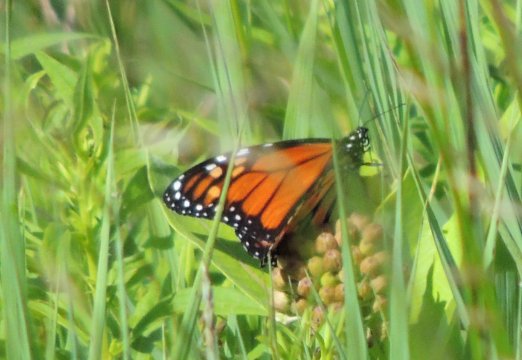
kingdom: Animalia
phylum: Arthropoda
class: Insecta
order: Lepidoptera
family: Nymphalidae
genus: Danaus
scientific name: Danaus plexippus
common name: Monarch
